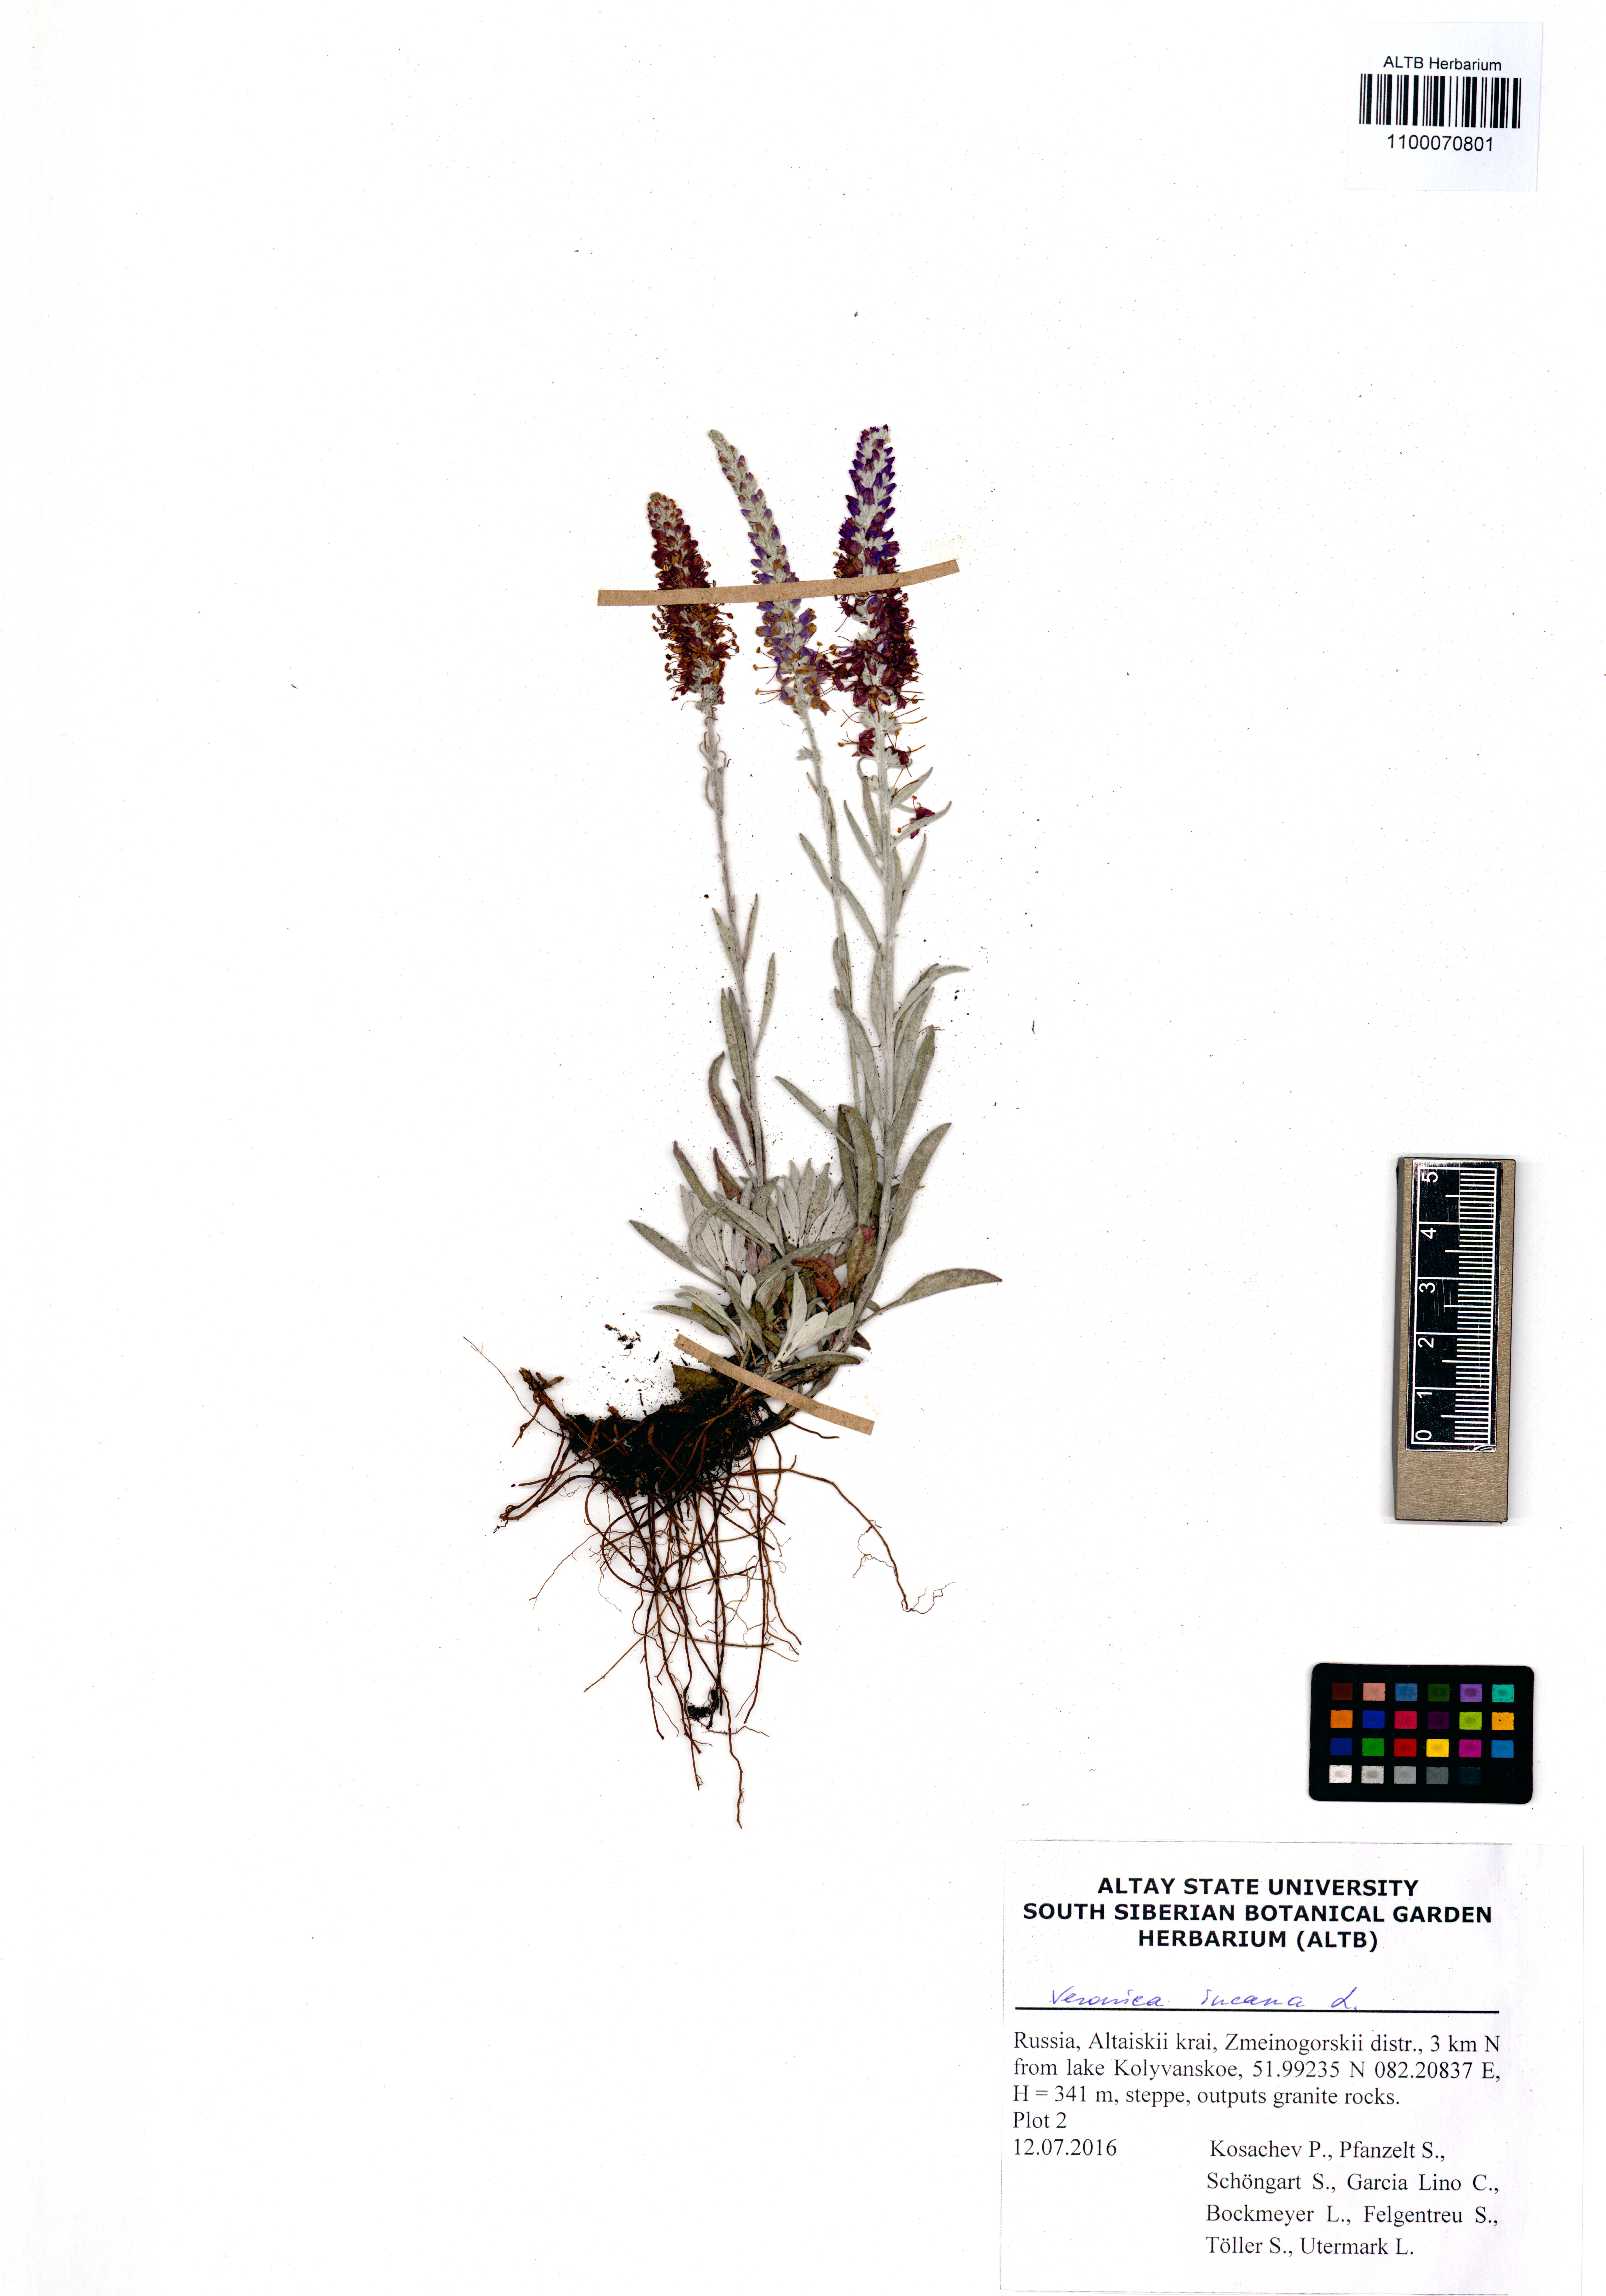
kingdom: Plantae
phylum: Tracheophyta
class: Magnoliopsida
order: Lamiales
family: Plantaginaceae
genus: Veronica
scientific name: Veronica incana
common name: Silver speedwell
